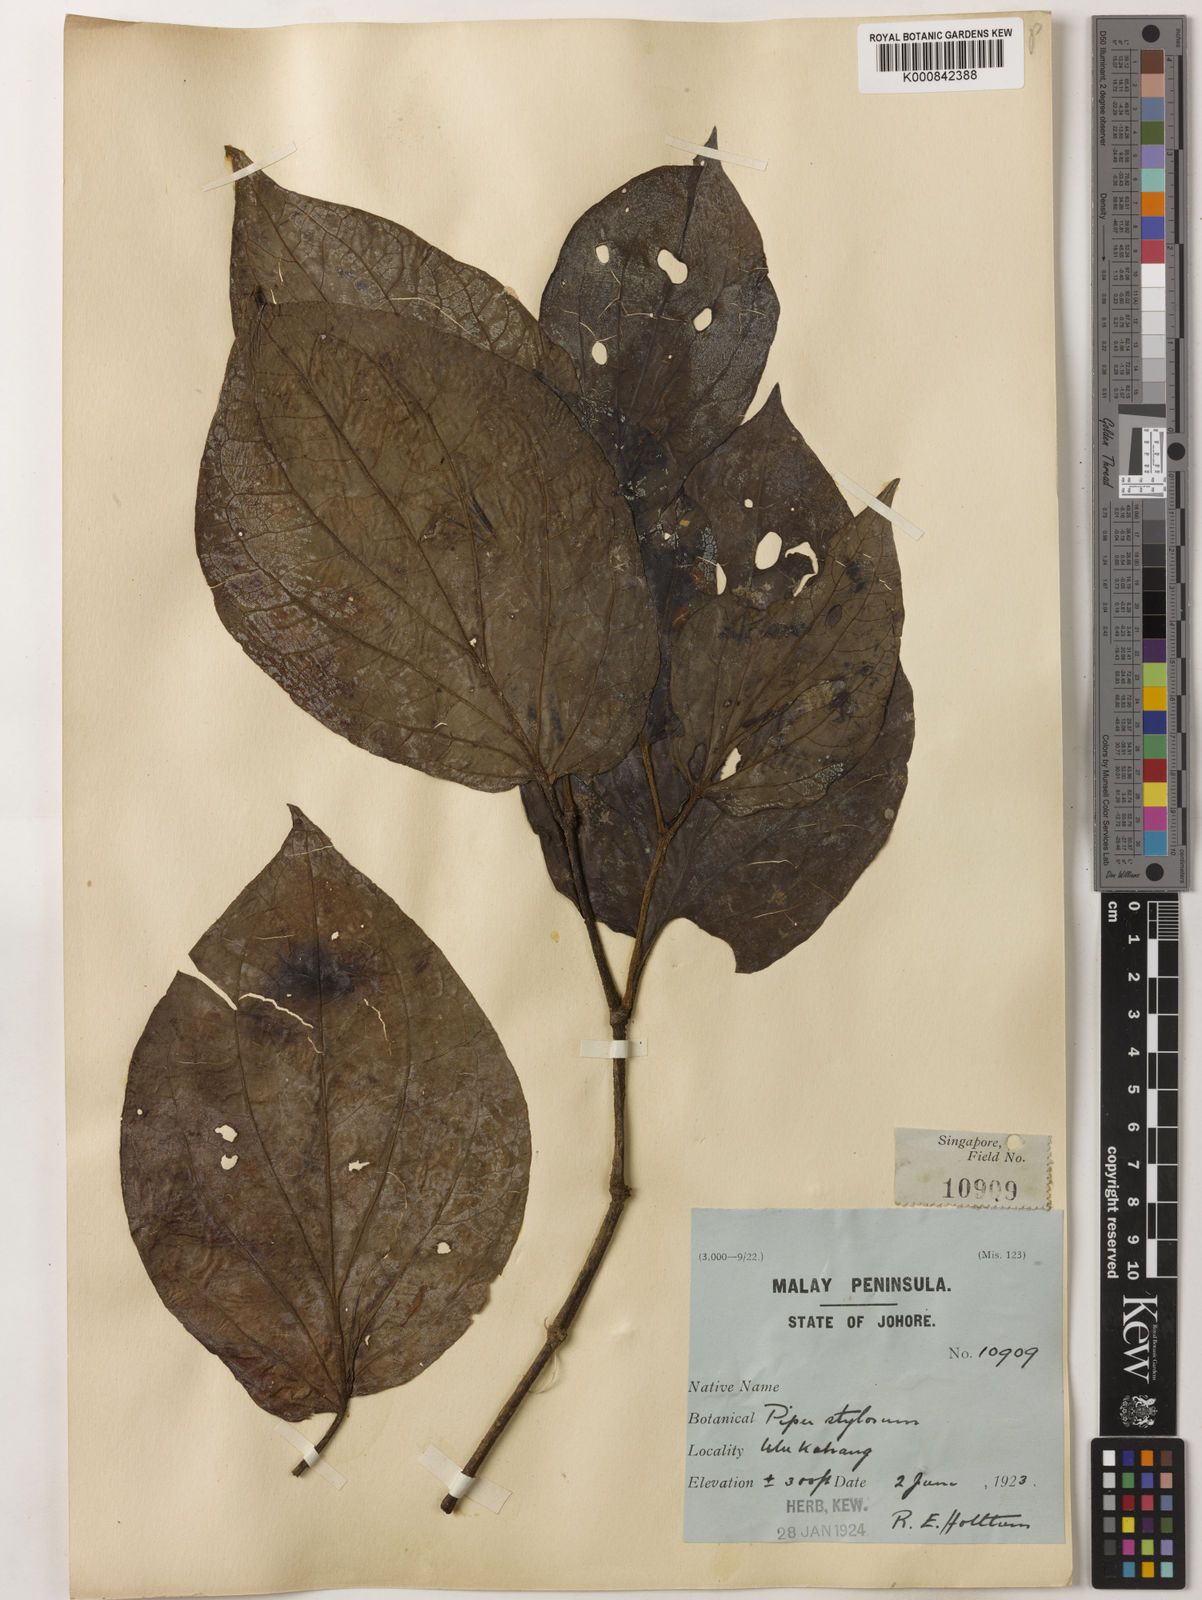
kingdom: Plantae
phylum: Tracheophyta
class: Magnoliopsida
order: Piperales
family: Piperaceae
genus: Piper
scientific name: Piper rostratum
